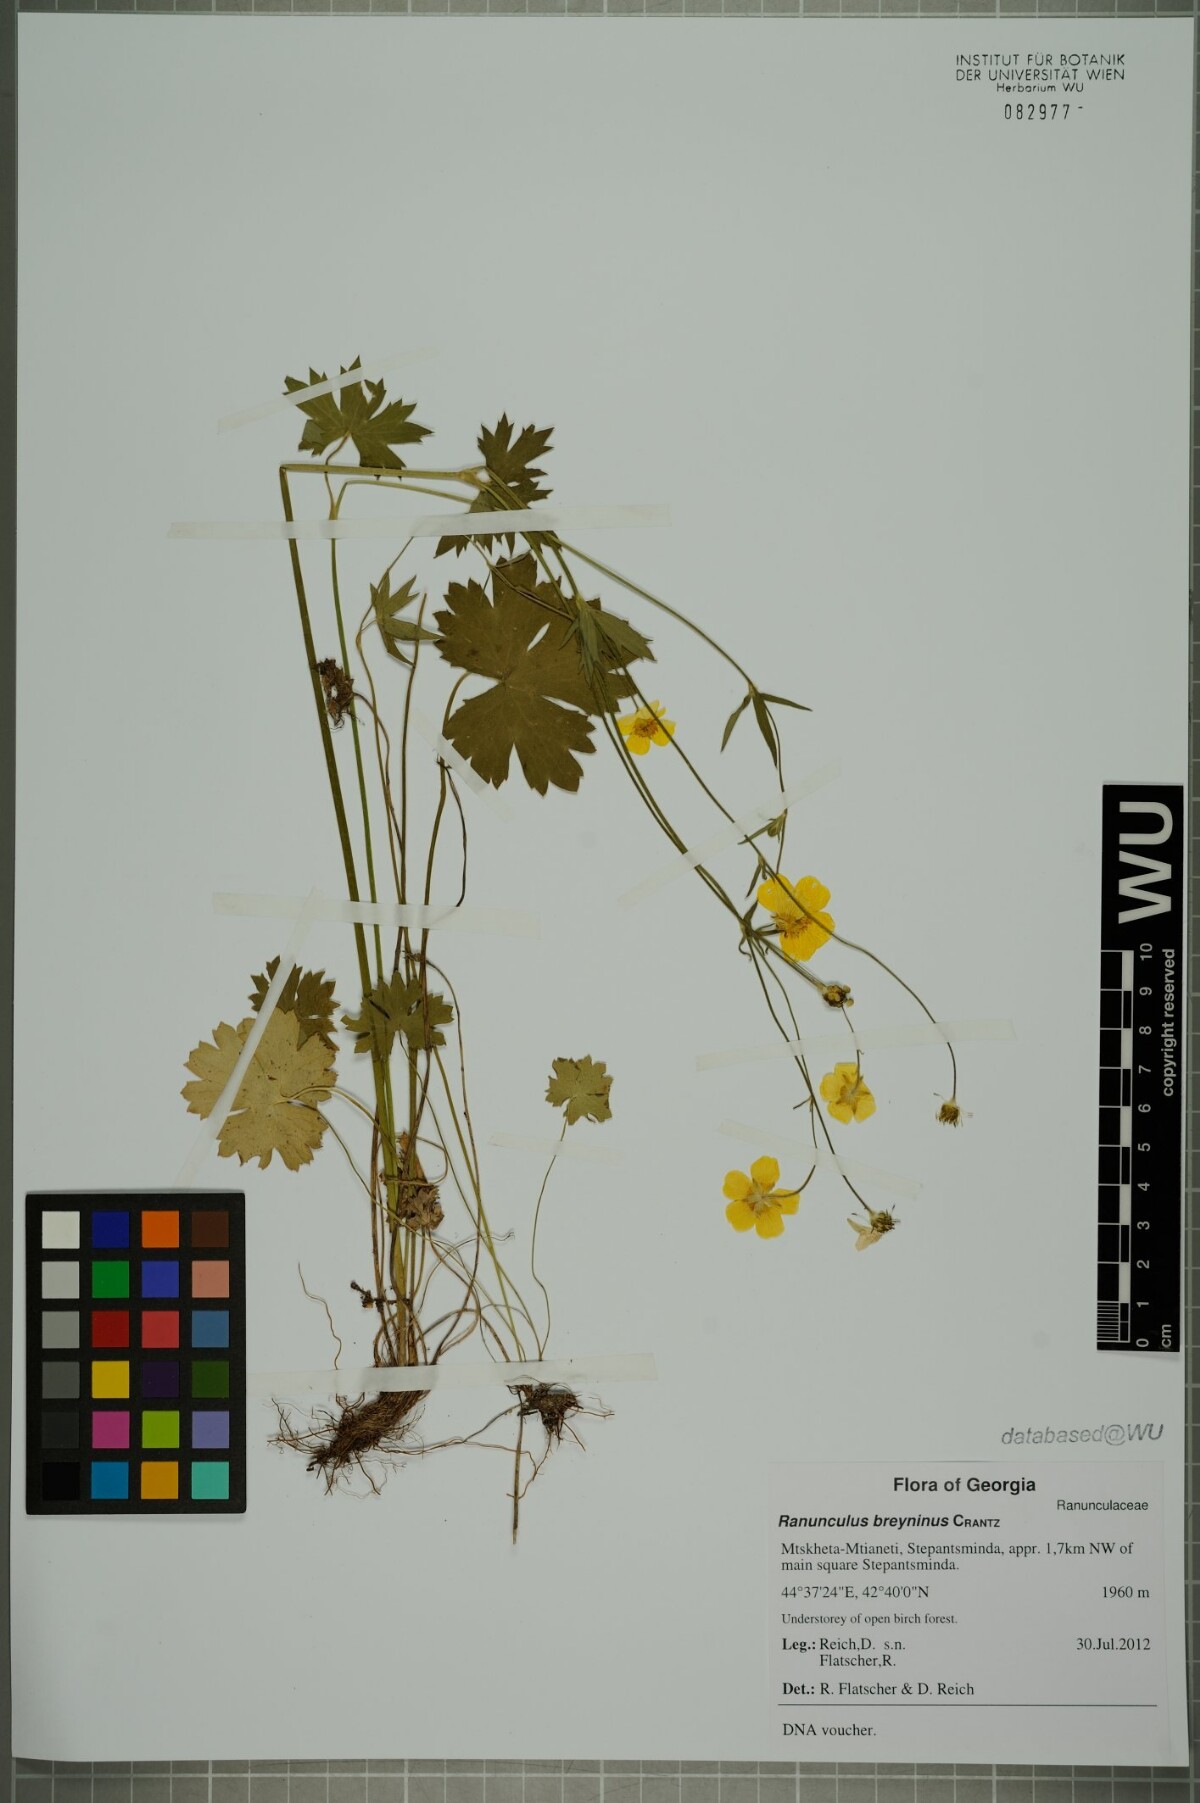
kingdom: Plantae
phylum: Tracheophyta
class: Magnoliopsida
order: Ranunculales
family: Ranunculaceae
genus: Ranunculus
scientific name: Ranunculus breyninus
